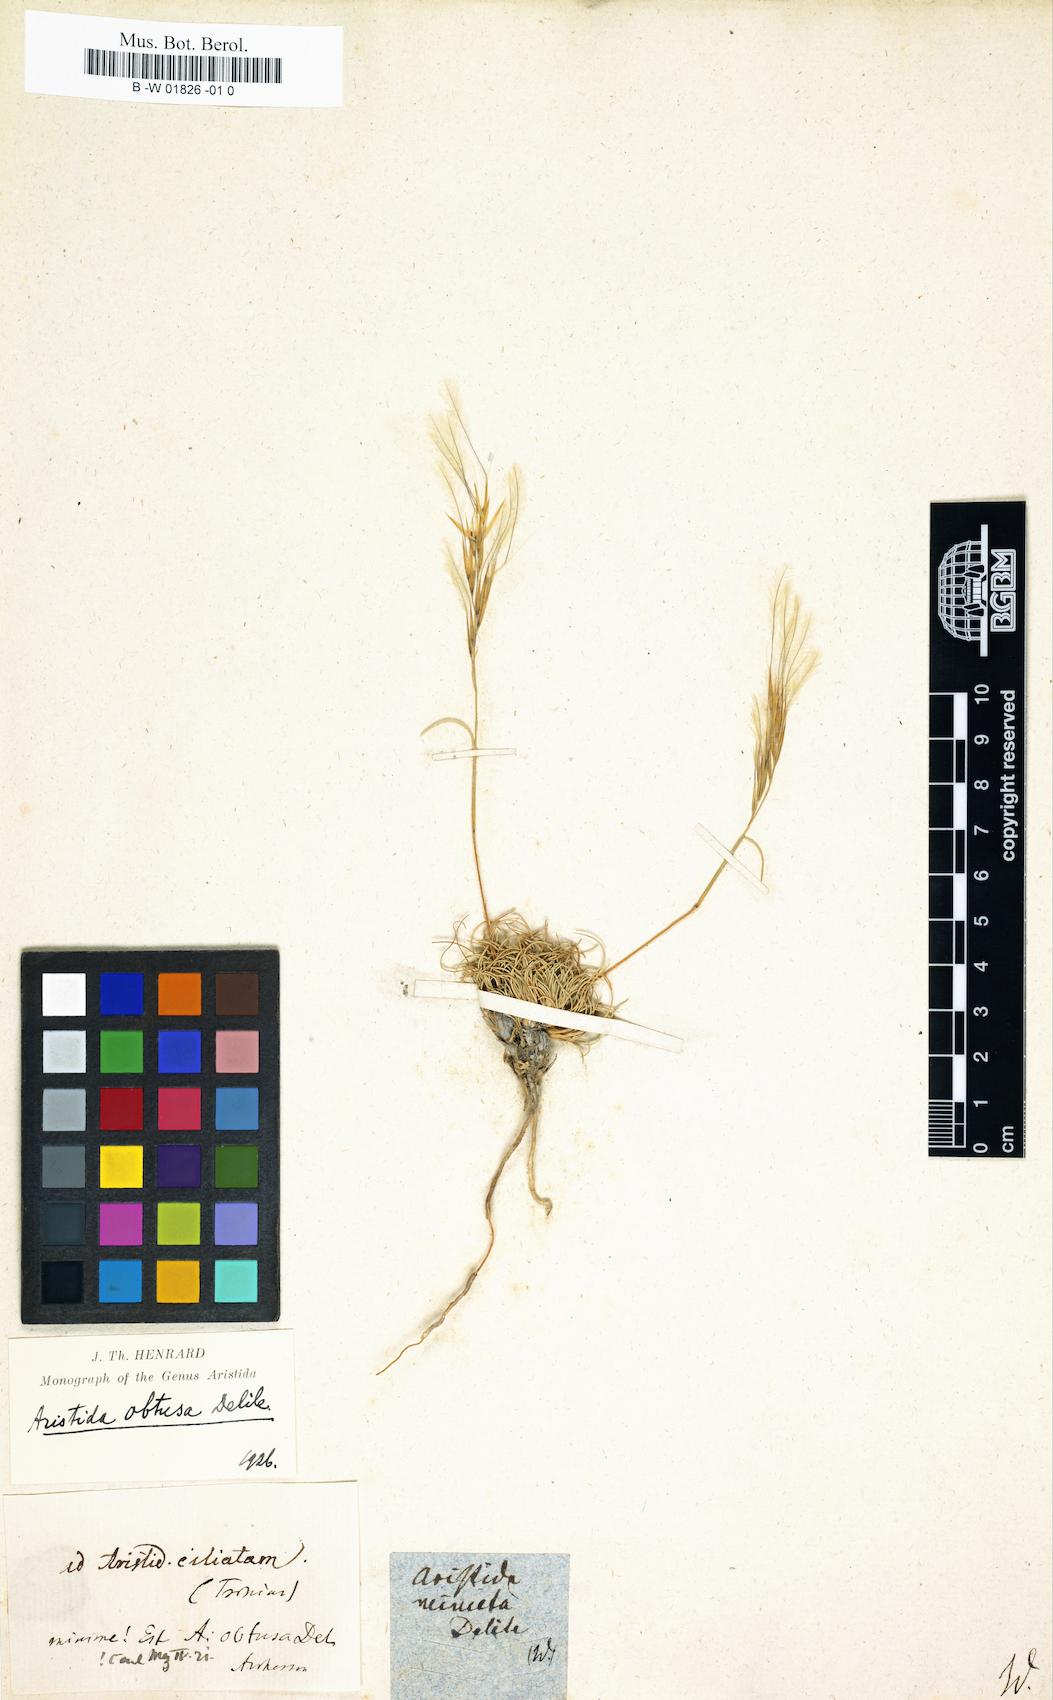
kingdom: Plantae
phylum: Tracheophyta
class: Liliopsida
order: Poales
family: Poaceae
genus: Bouteloua
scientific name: Bouteloua curtipendula
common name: Side-oats grama
